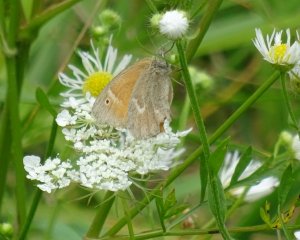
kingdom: Animalia
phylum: Arthropoda
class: Insecta
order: Lepidoptera
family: Nymphalidae
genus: Coenonympha
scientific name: Coenonympha tullia
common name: Large Heath
